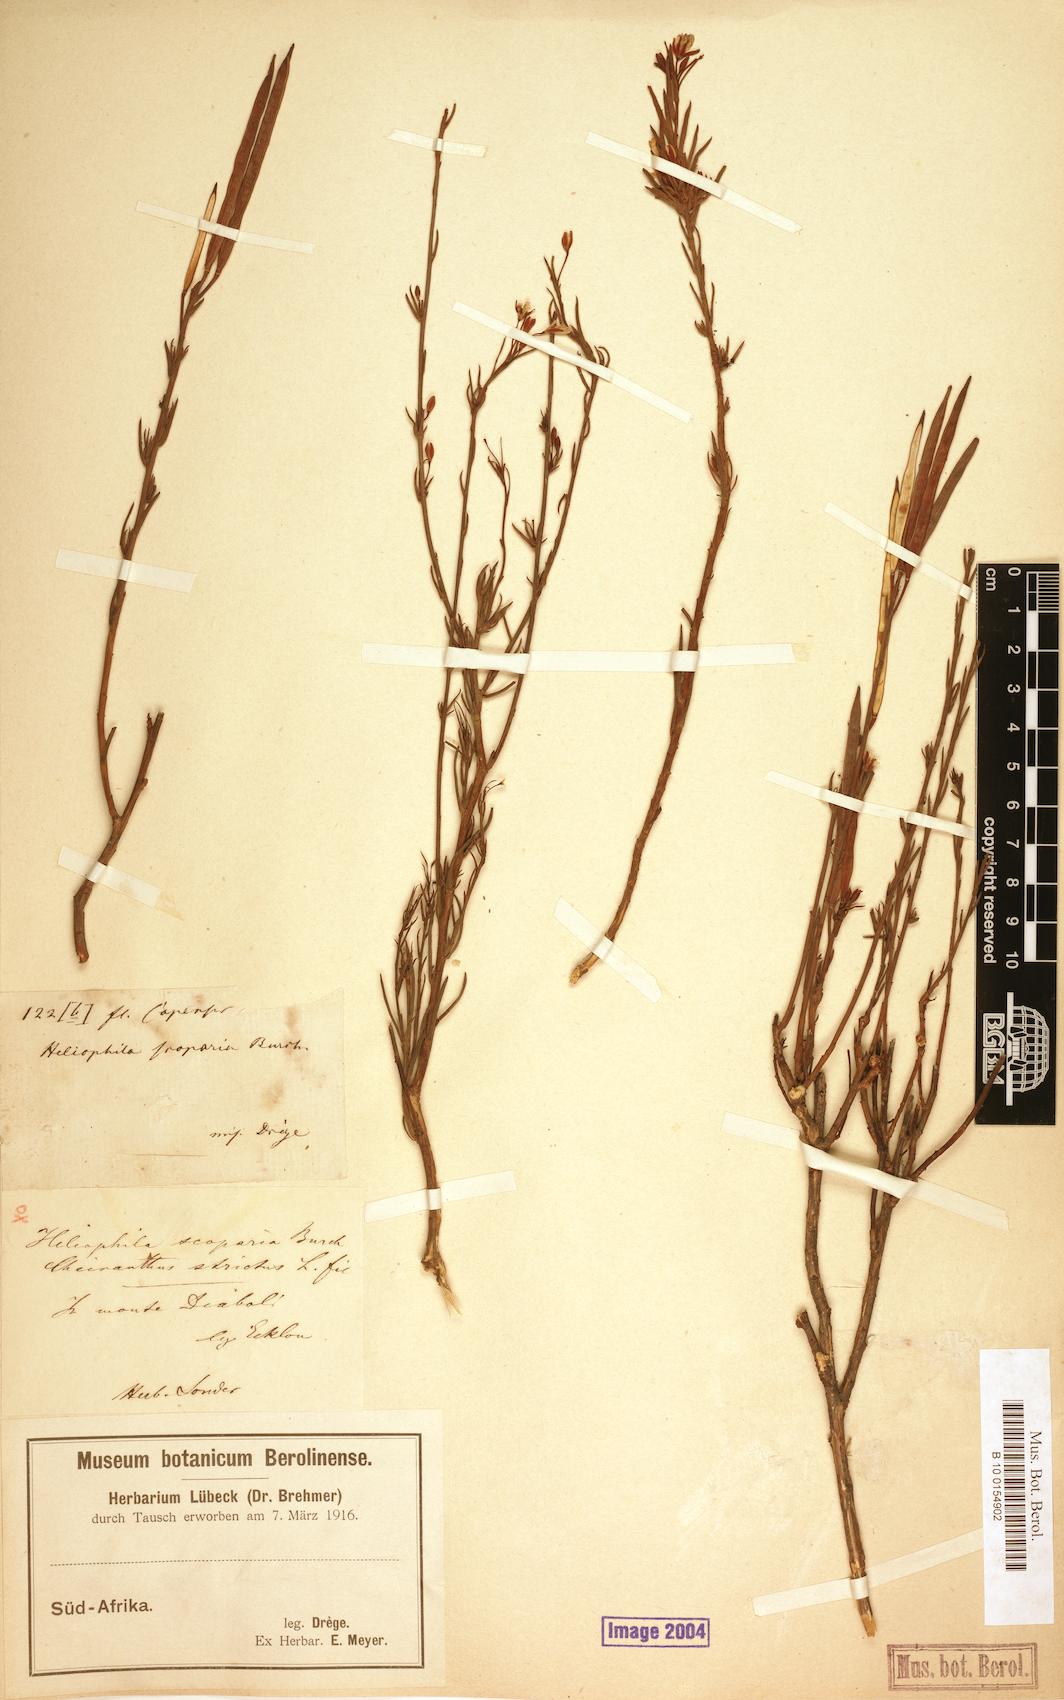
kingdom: Plantae
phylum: Tracheophyta
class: Magnoliopsida
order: Brassicales
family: Brassicaceae
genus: Heliophila
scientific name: Heliophila scoparia
